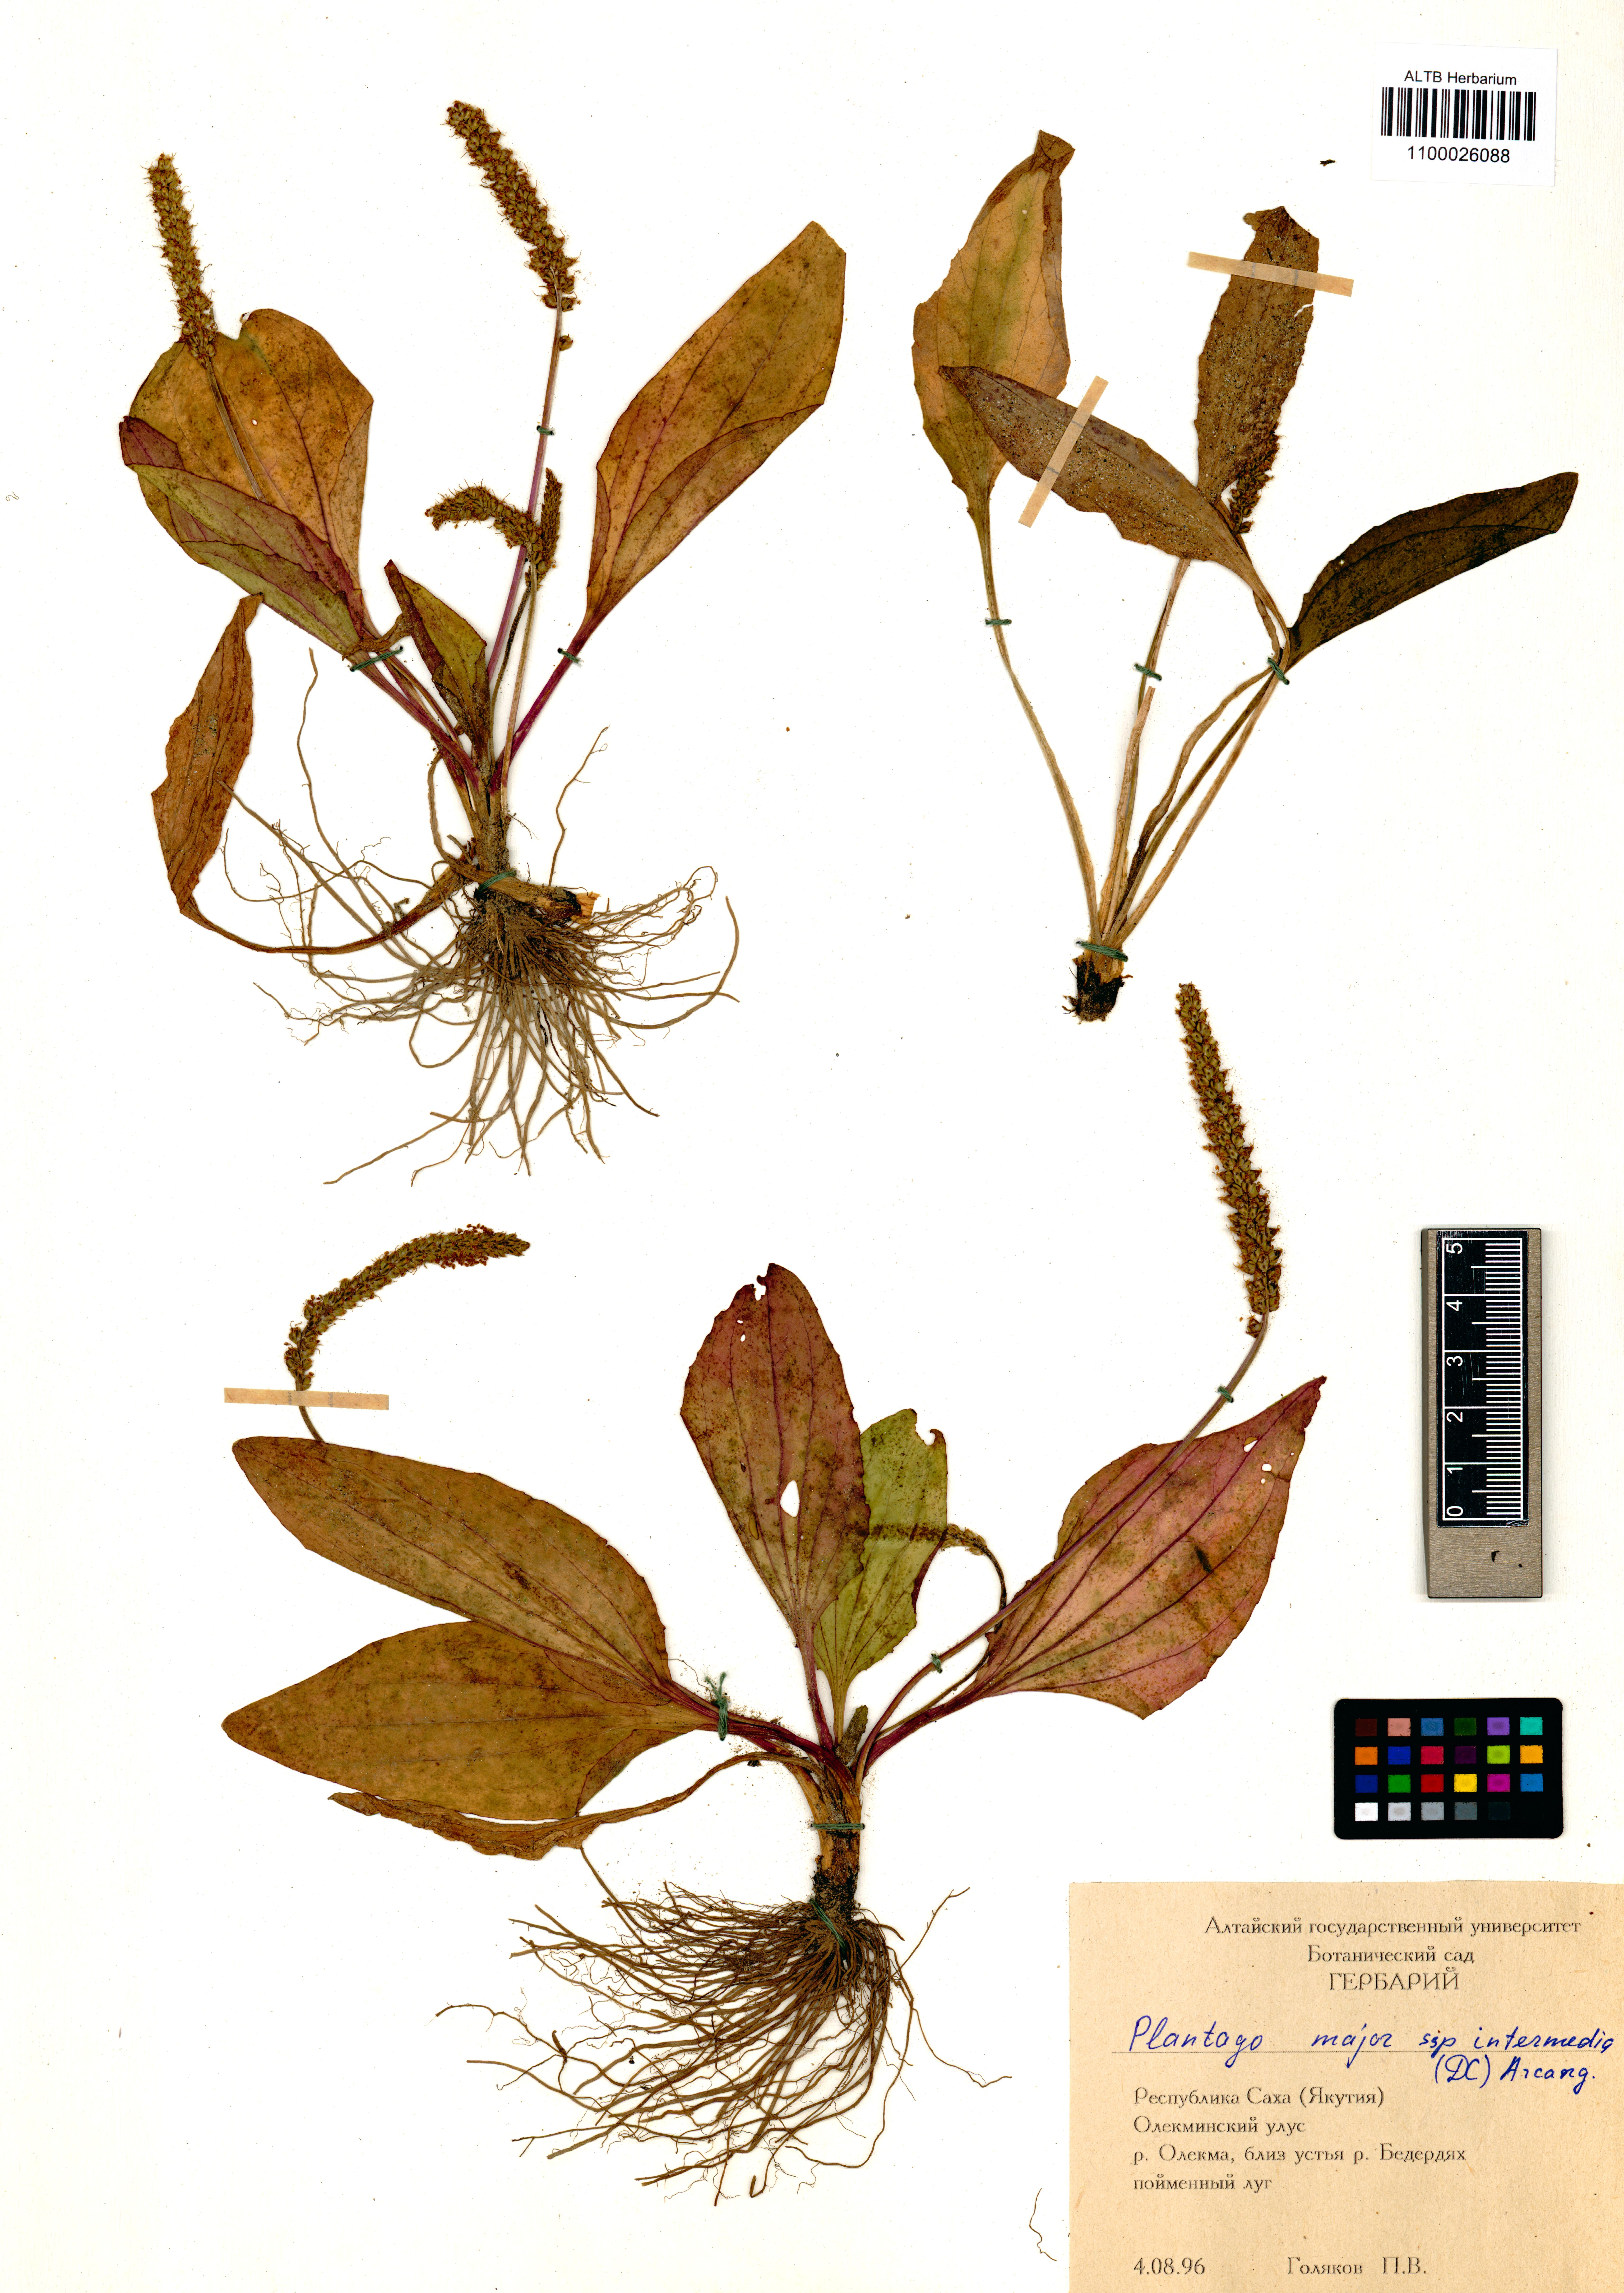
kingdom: Plantae
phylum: Tracheophyta
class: Magnoliopsida
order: Lamiales
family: Plantaginaceae
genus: Plantago
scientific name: Plantago major
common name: Common plantain
